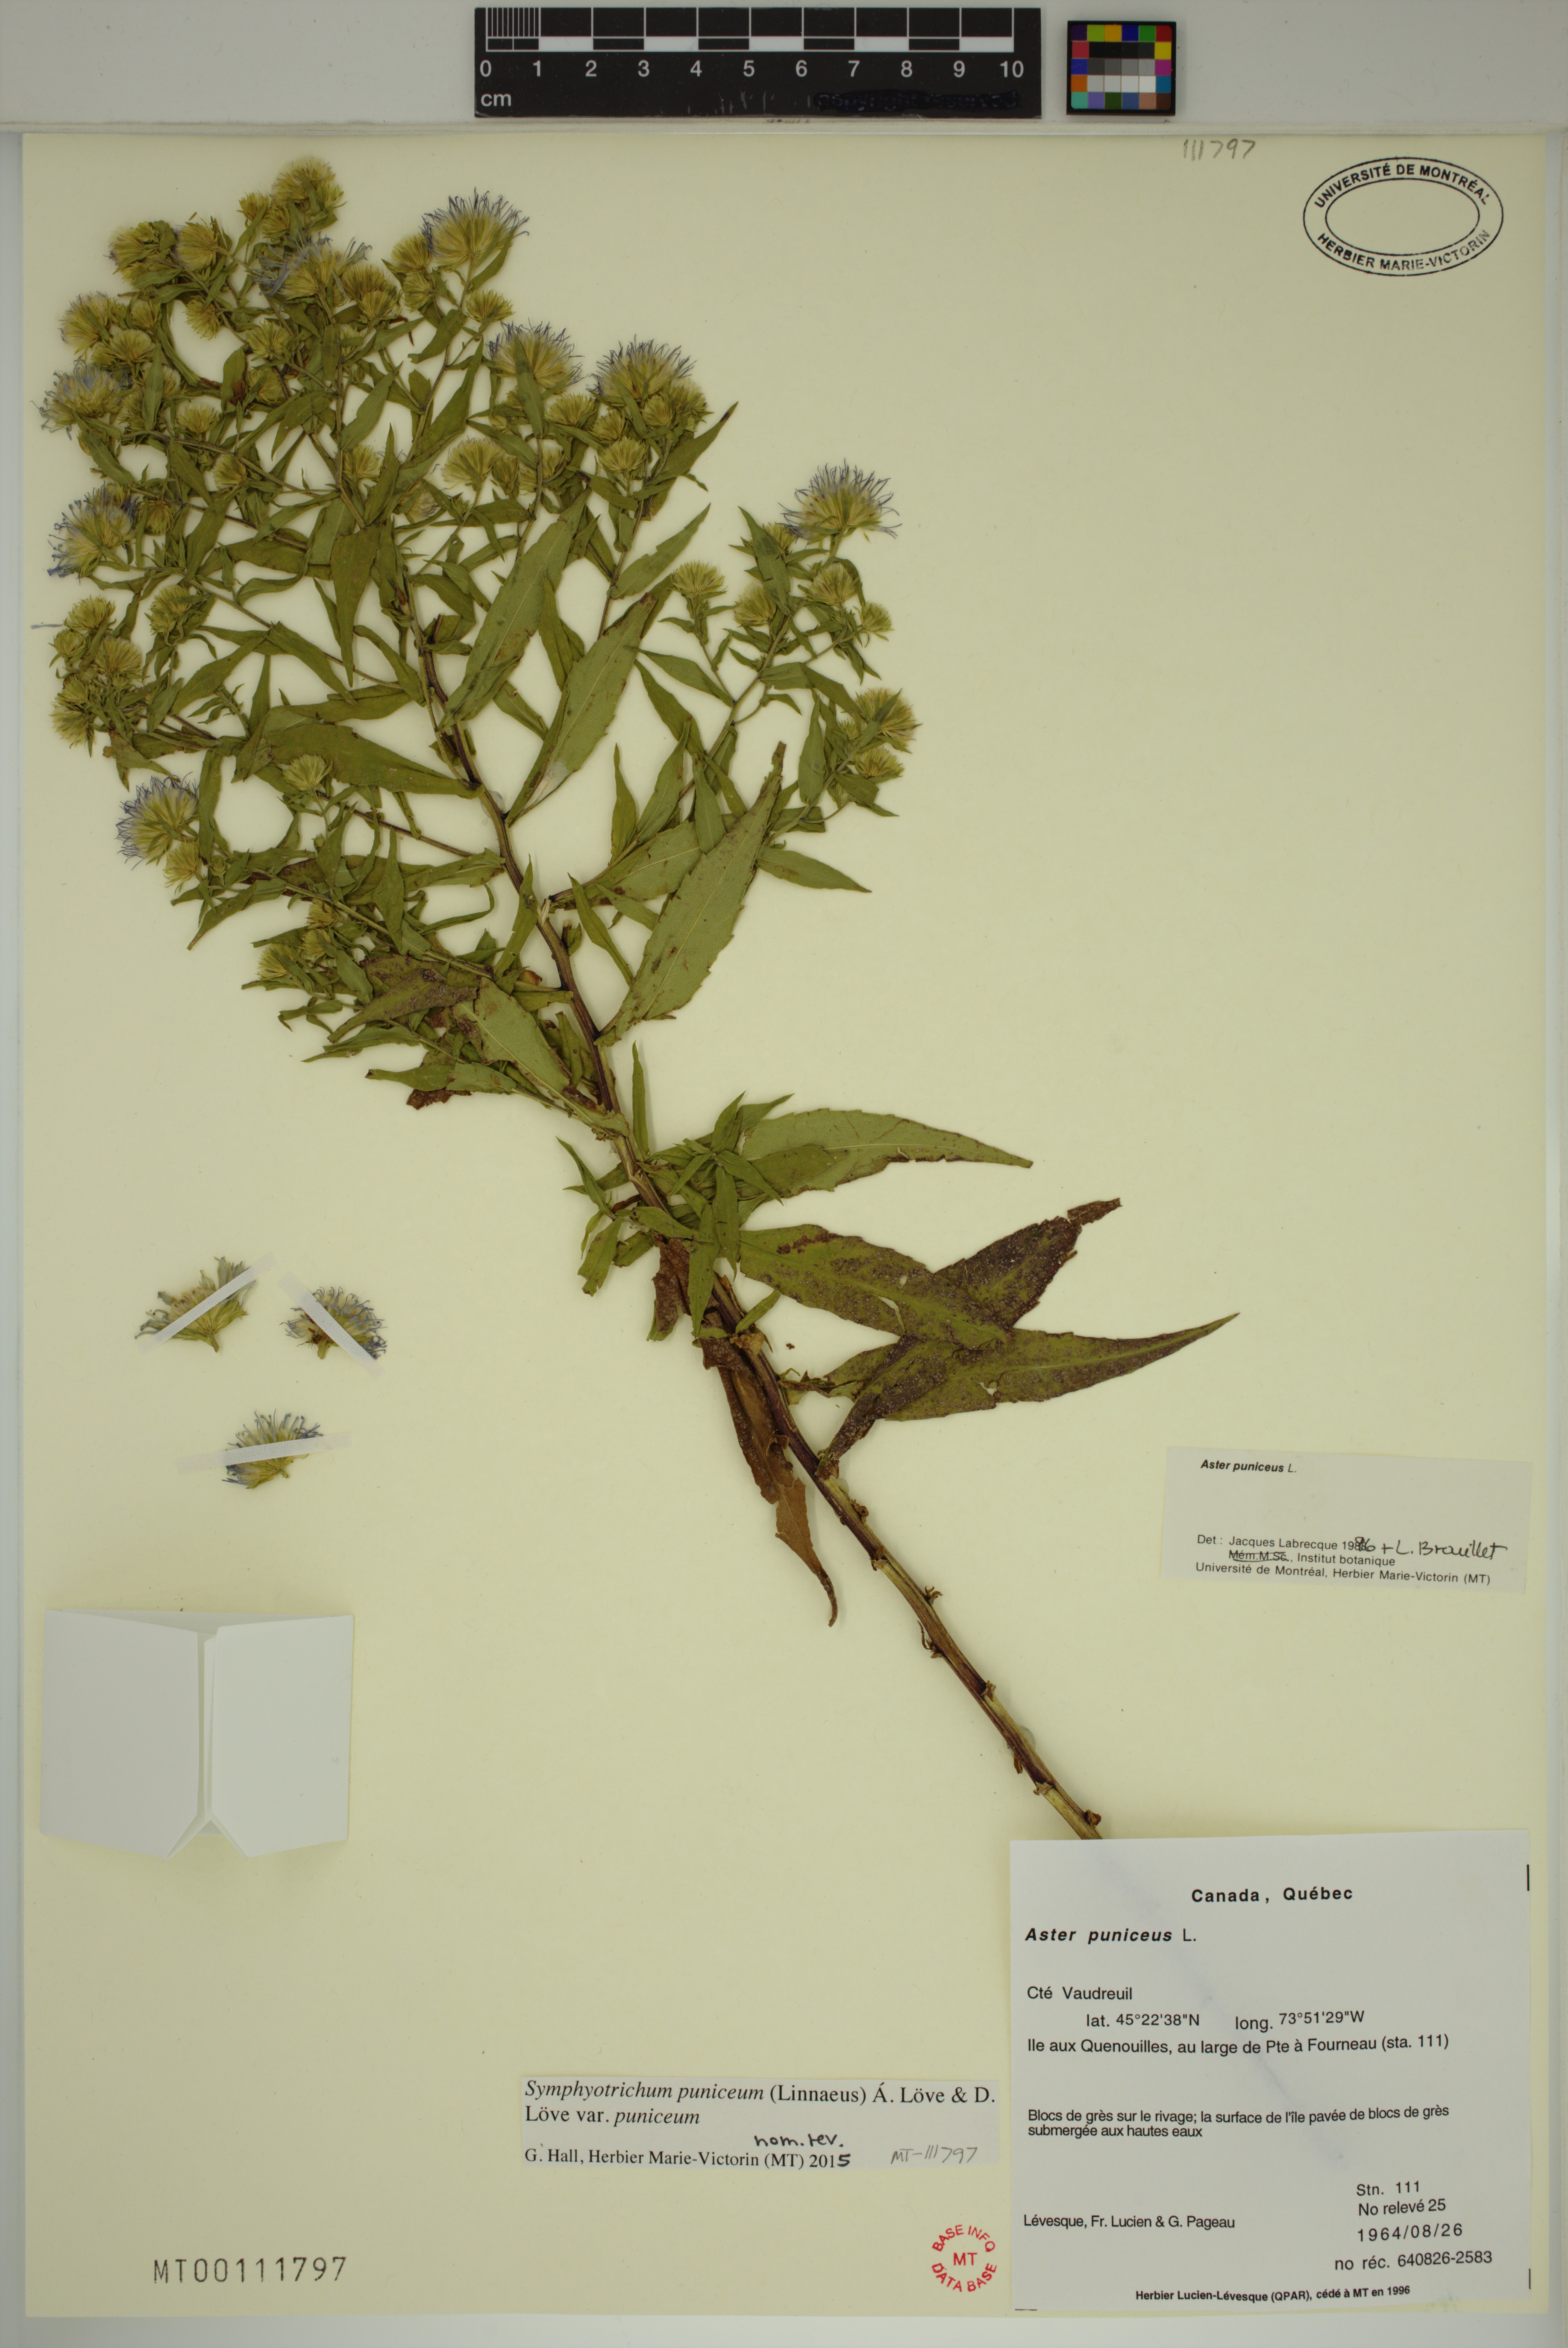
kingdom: Plantae
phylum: Tracheophyta
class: Magnoliopsida
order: Asterales
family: Asteraceae
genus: Symphyotrichum
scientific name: Symphyotrichum puniceum
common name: Bog aster
